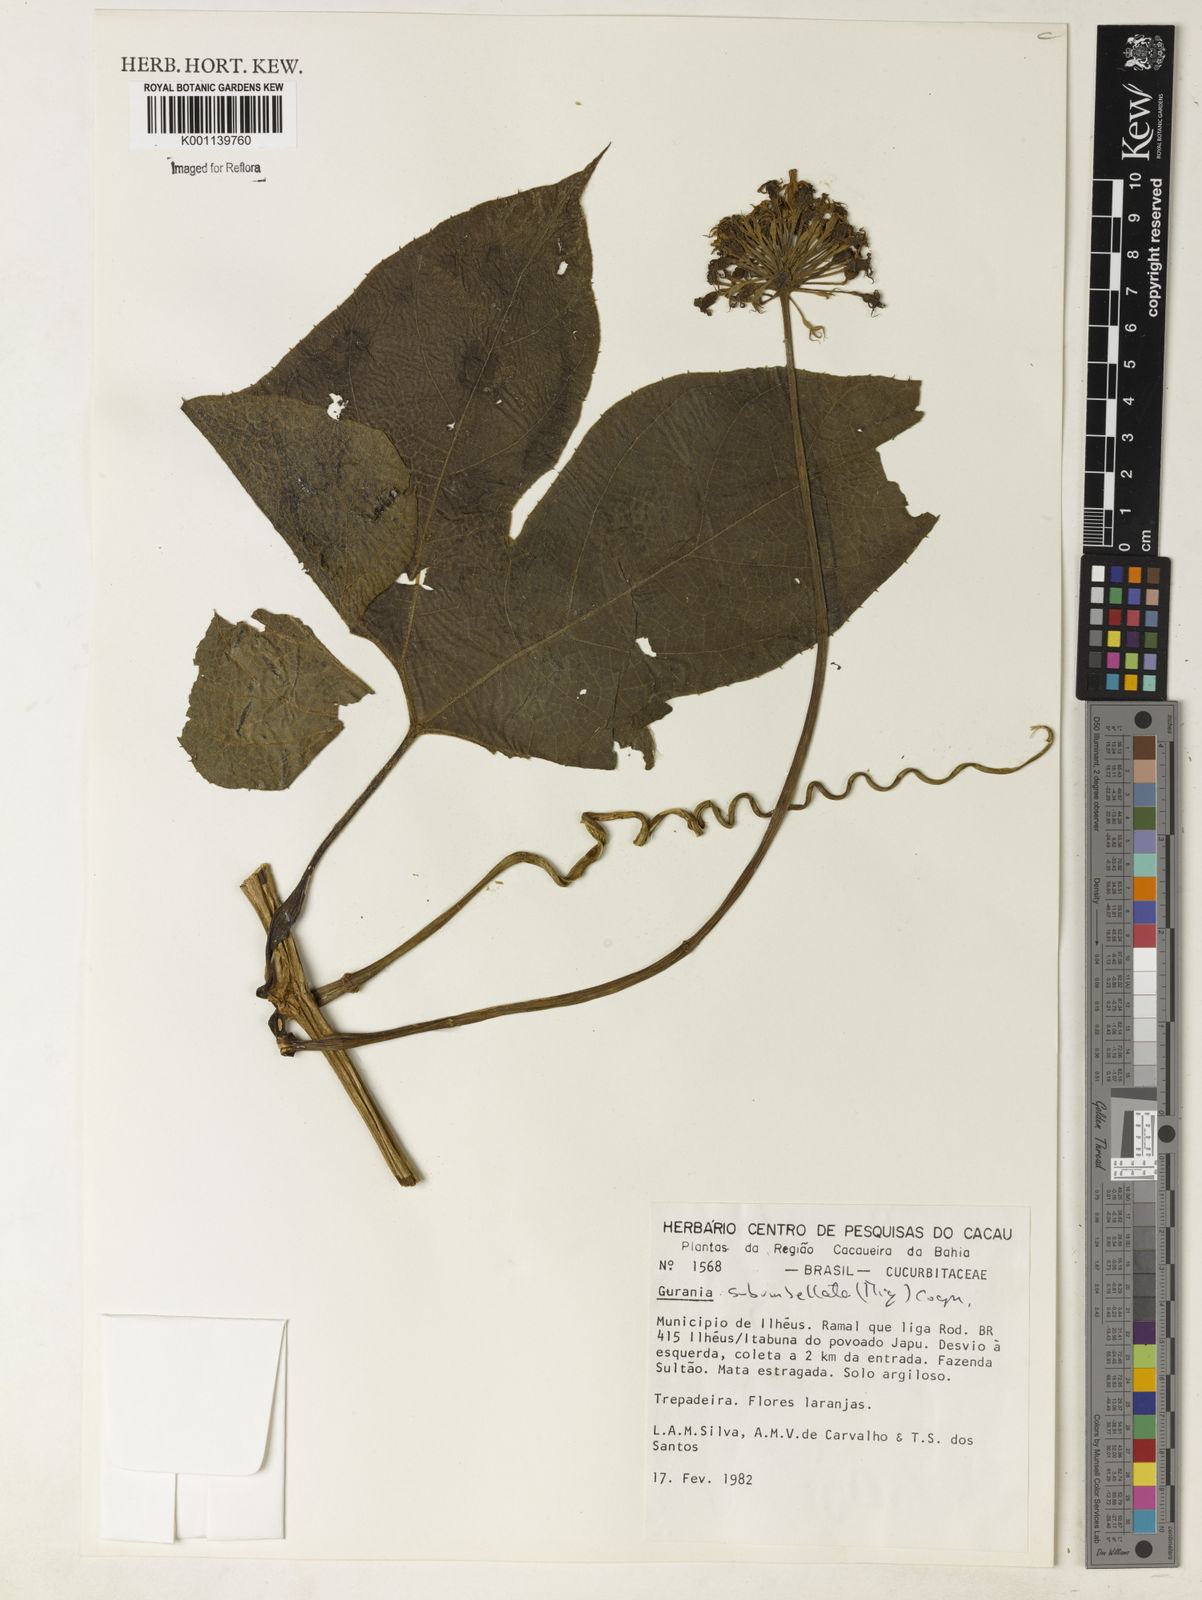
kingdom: Plantae
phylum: Tracheophyta
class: Magnoliopsida
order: Cucurbitales
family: Cucurbitaceae
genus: Gurania
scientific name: Gurania subumbellata
